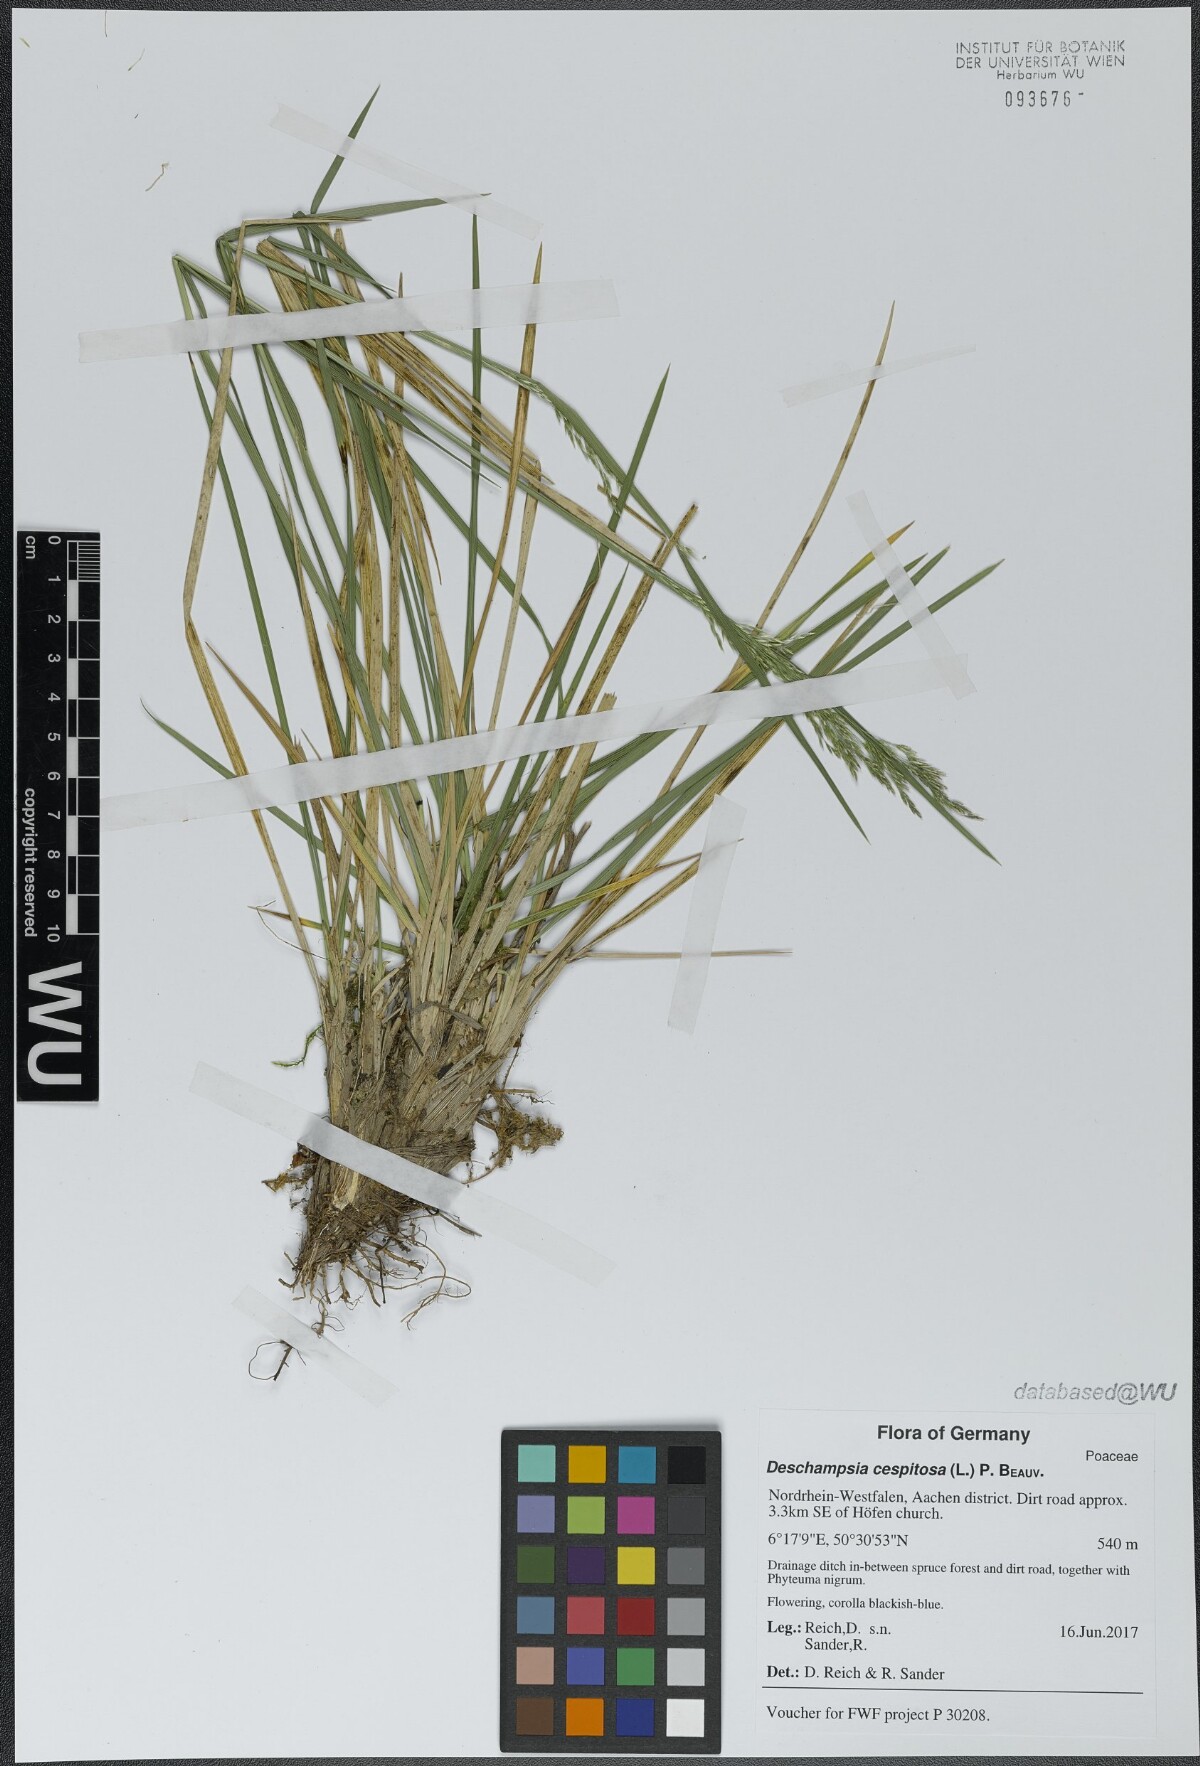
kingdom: Plantae
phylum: Tracheophyta
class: Liliopsida
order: Poales
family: Poaceae
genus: Deschampsia
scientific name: Deschampsia cespitosa
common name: Tufted hair-grass
